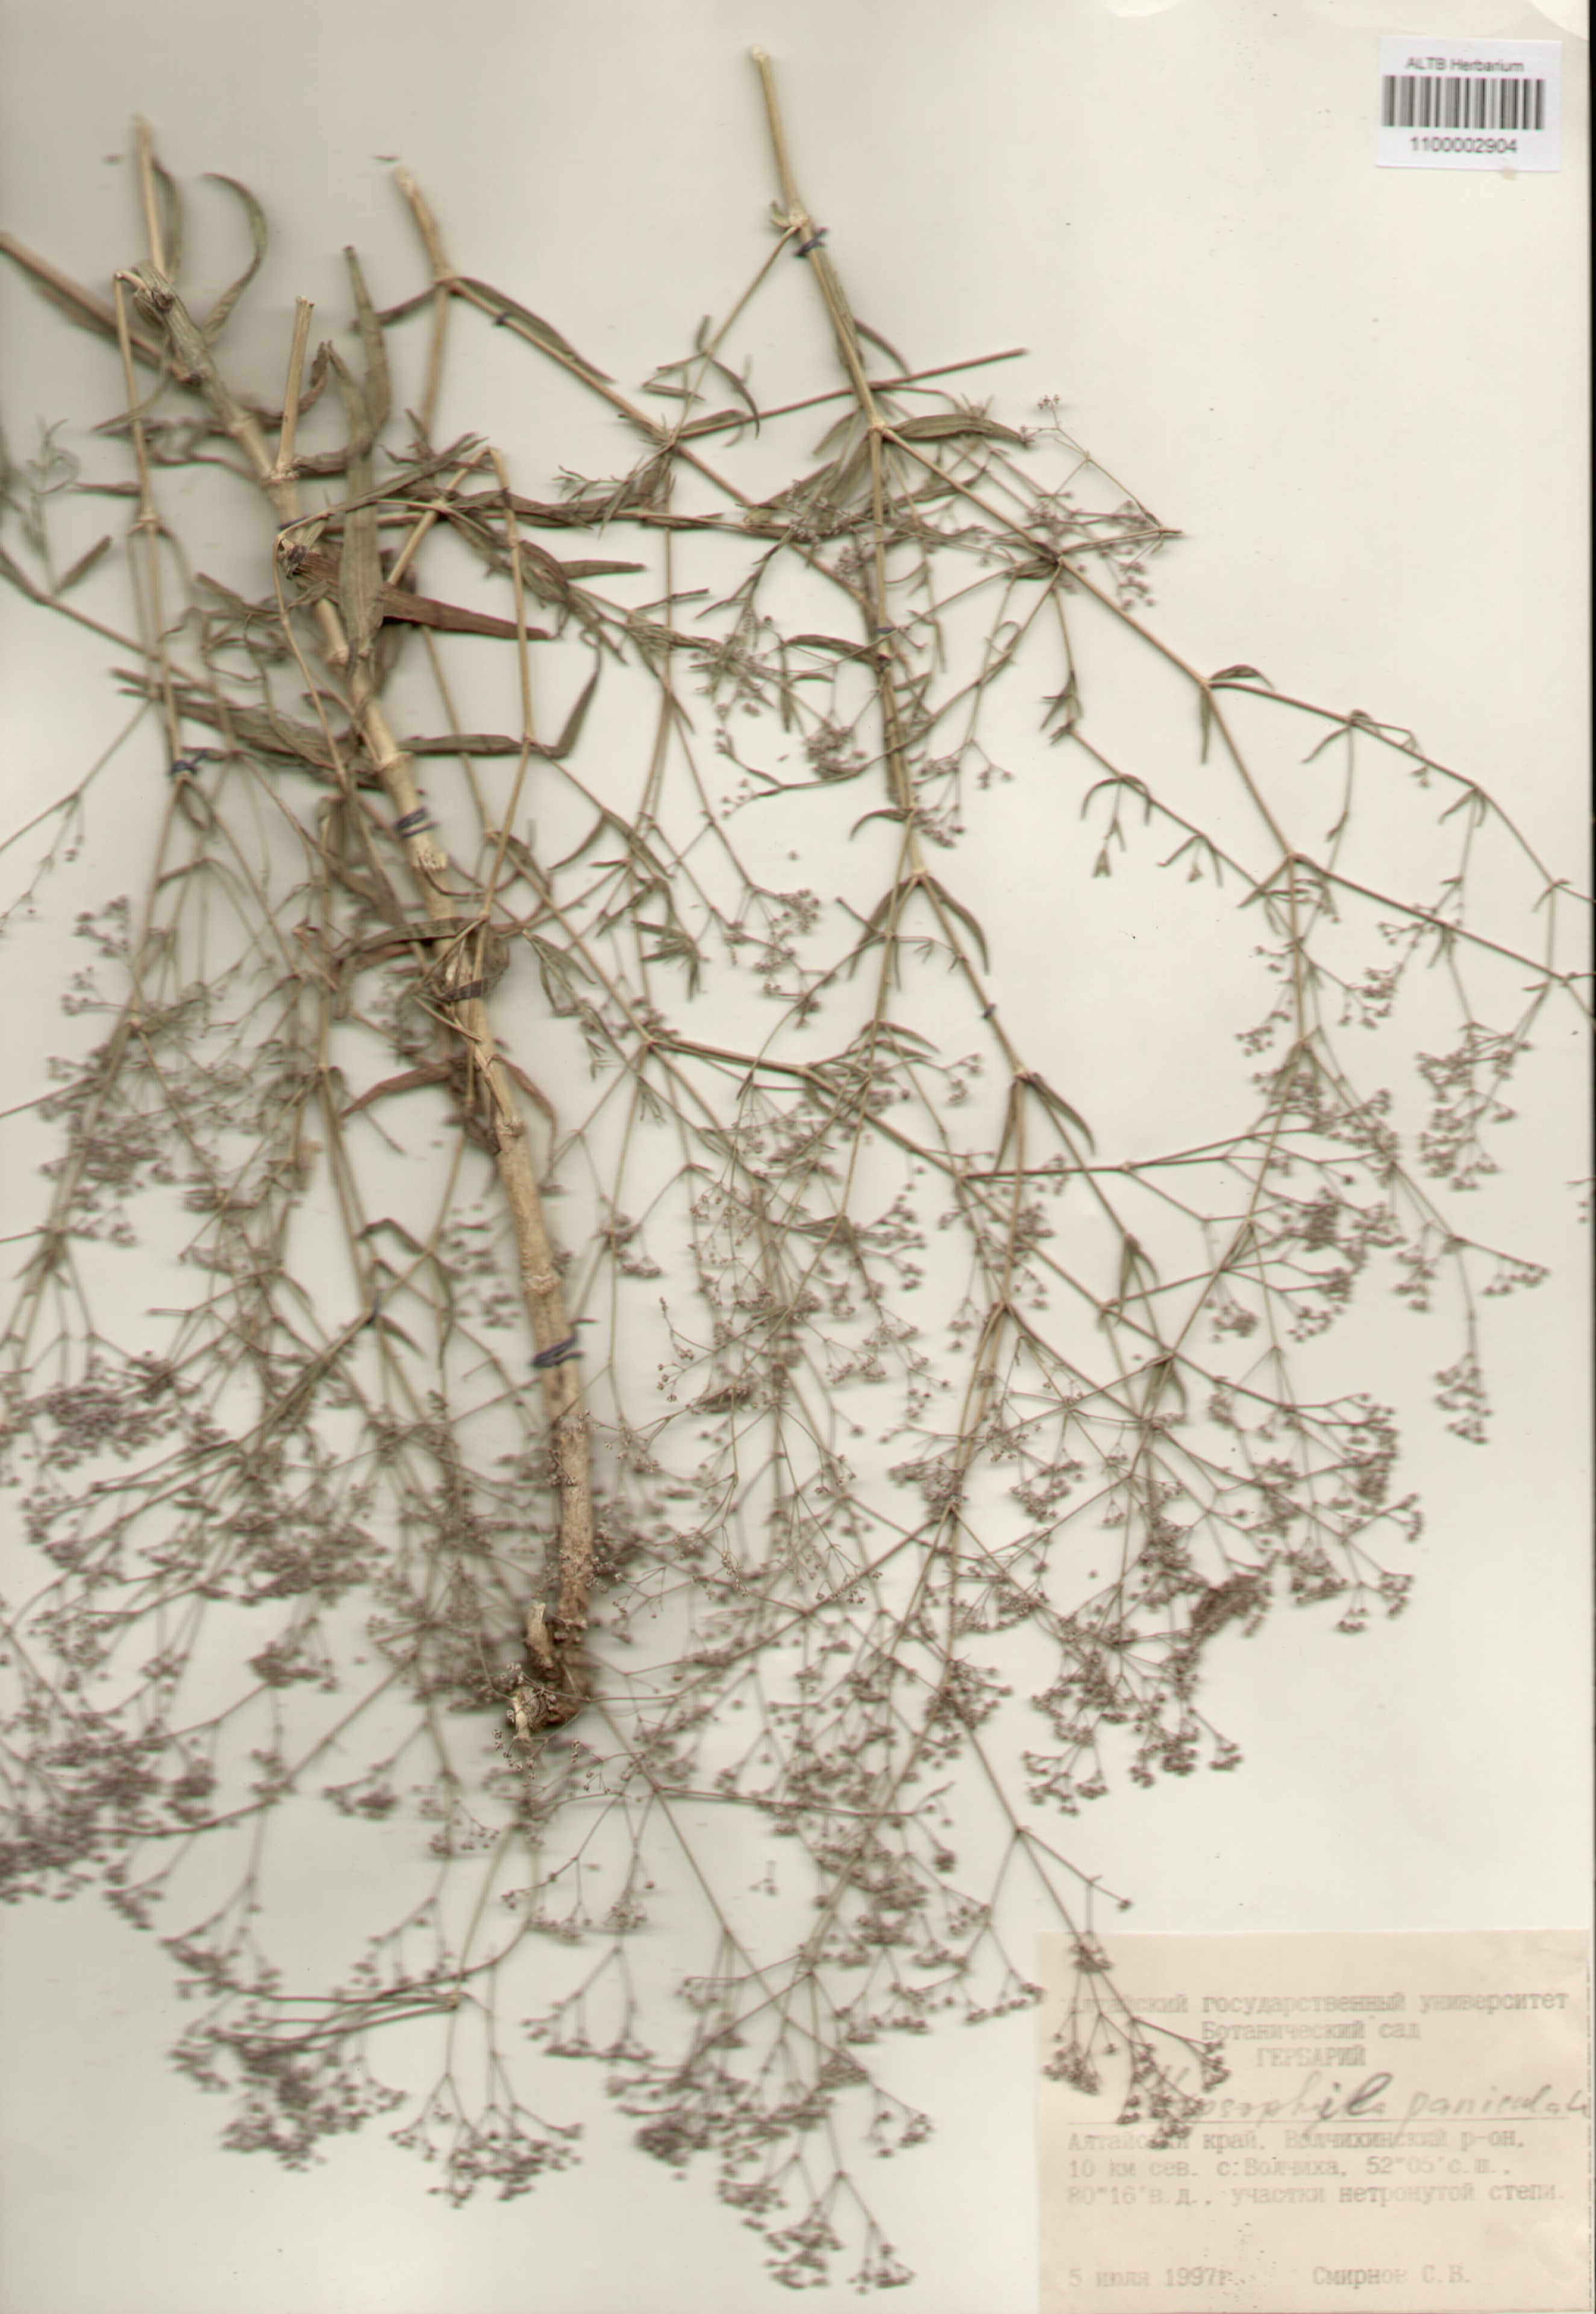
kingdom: Plantae
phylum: Tracheophyta
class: Magnoliopsida
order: Caryophyllales
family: Caryophyllaceae
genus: Gypsophila
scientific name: Gypsophila paniculata
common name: Baby's-breath
